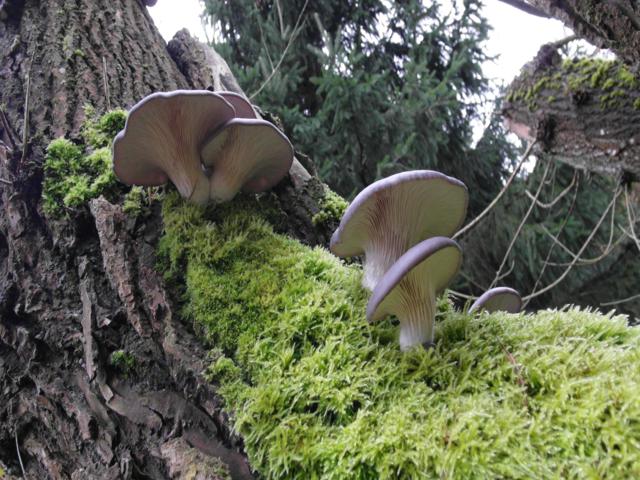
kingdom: Fungi
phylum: Basidiomycota
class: Agaricomycetes
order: Agaricales
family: Pleurotaceae
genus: Pleurotus
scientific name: Pleurotus ostreatus
